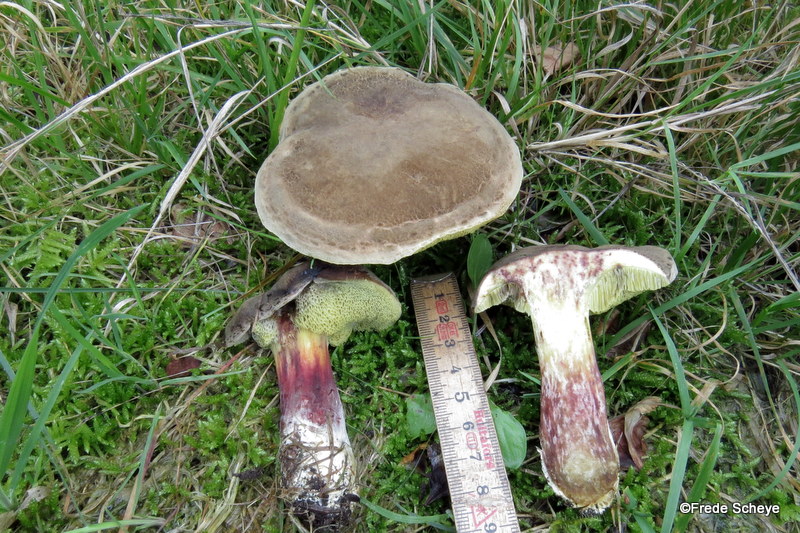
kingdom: Fungi
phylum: Basidiomycota
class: Agaricomycetes
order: Boletales
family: Boletaceae
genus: Xerocomellus
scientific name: Xerocomellus pruinatus
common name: dugget rørhat
